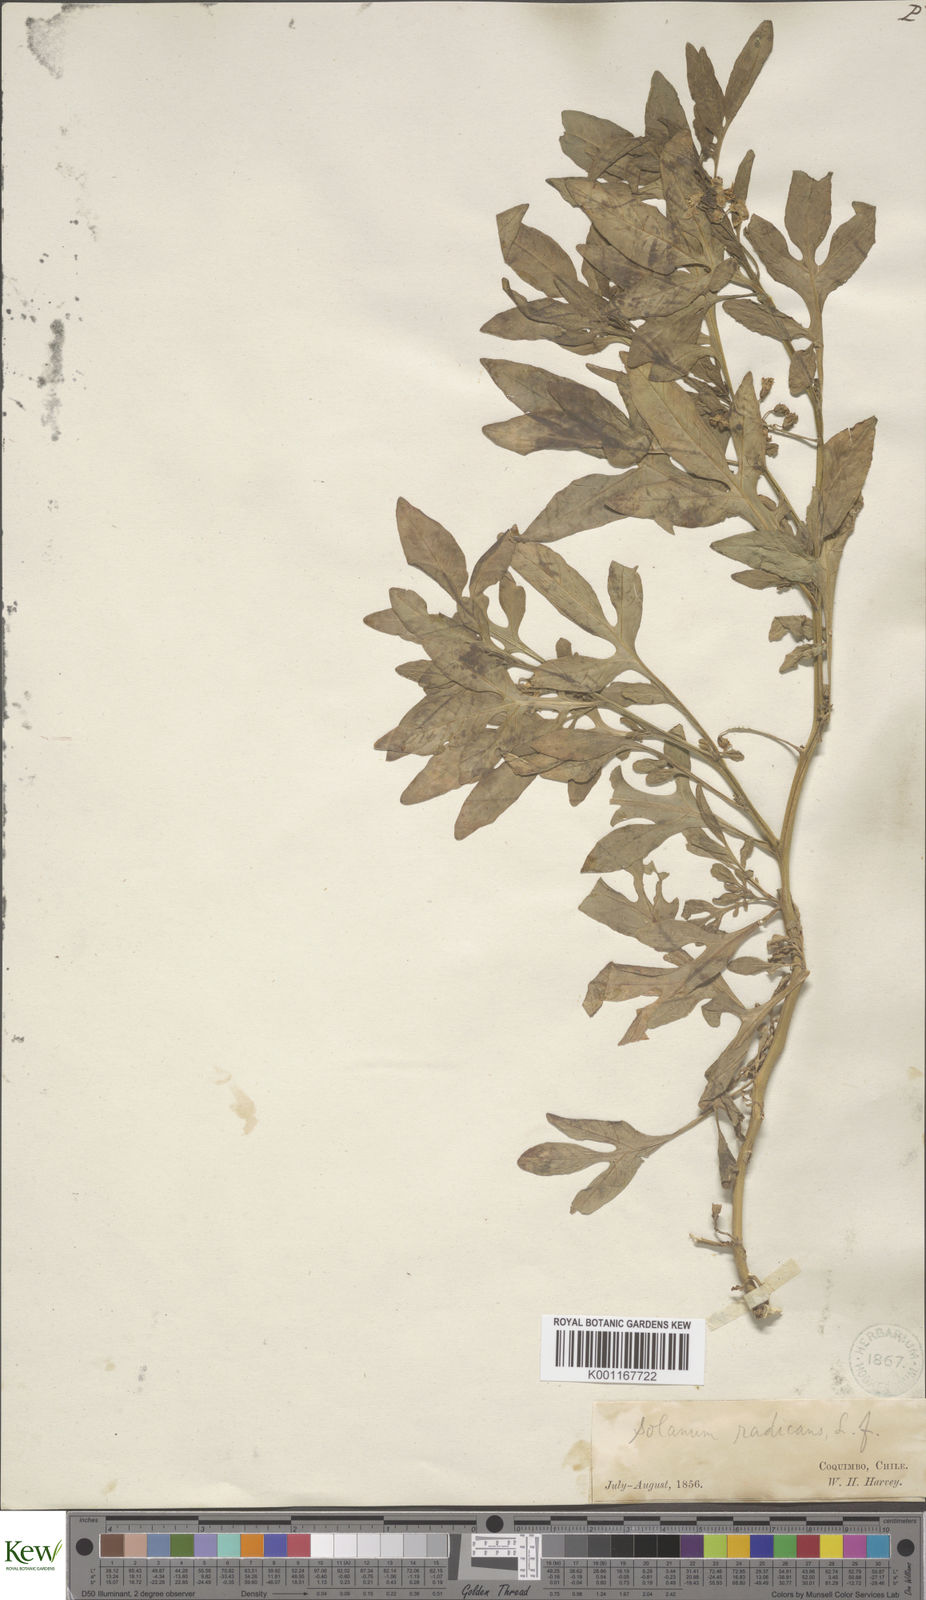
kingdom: Plantae
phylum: Tracheophyta
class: Magnoliopsida
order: Solanales
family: Solanaceae
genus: Solanum
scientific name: Solanum radicans
